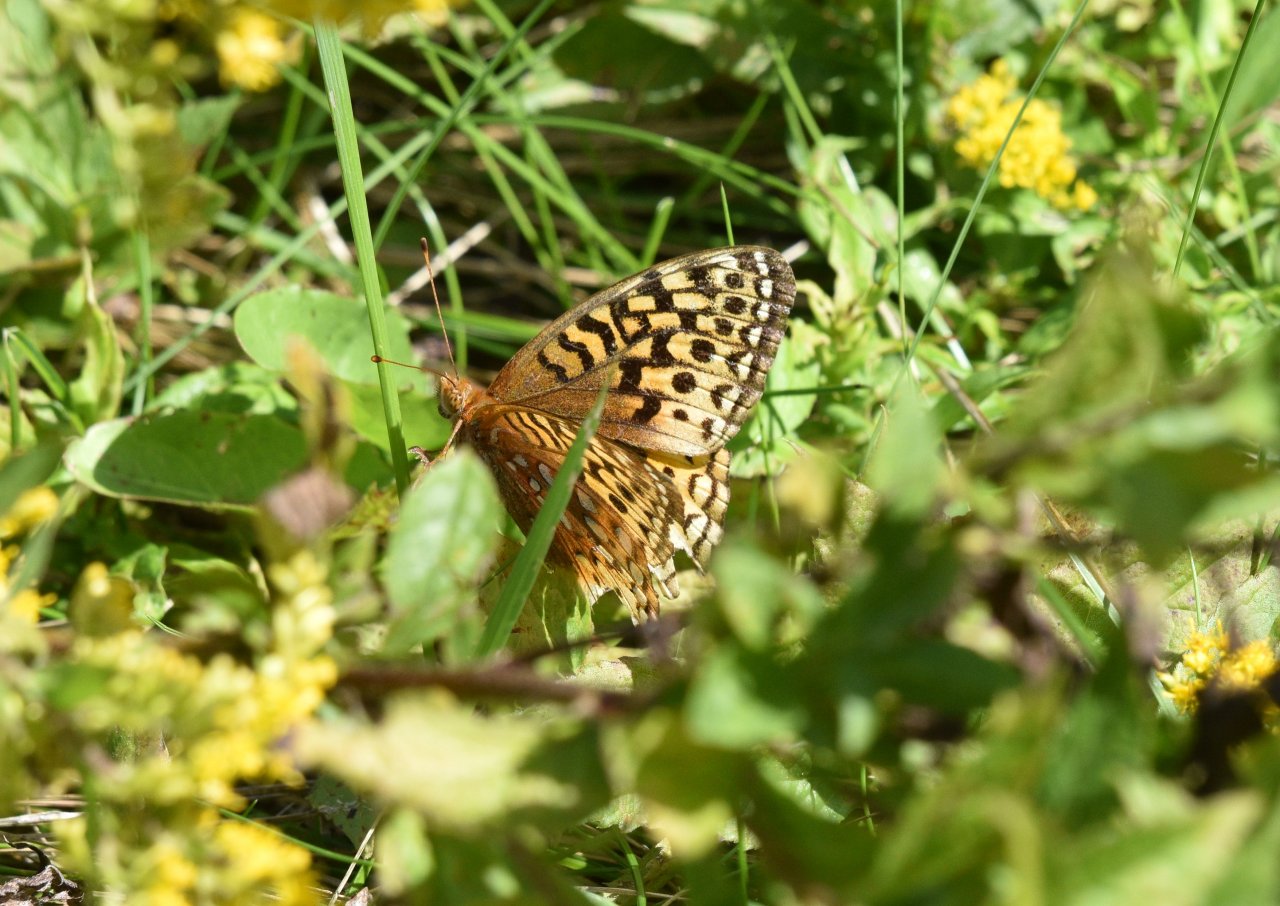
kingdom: Animalia
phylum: Arthropoda
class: Insecta
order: Lepidoptera
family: Nymphalidae
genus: Speyeria
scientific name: Speyeria cybele
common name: Great Spangled Fritillary
